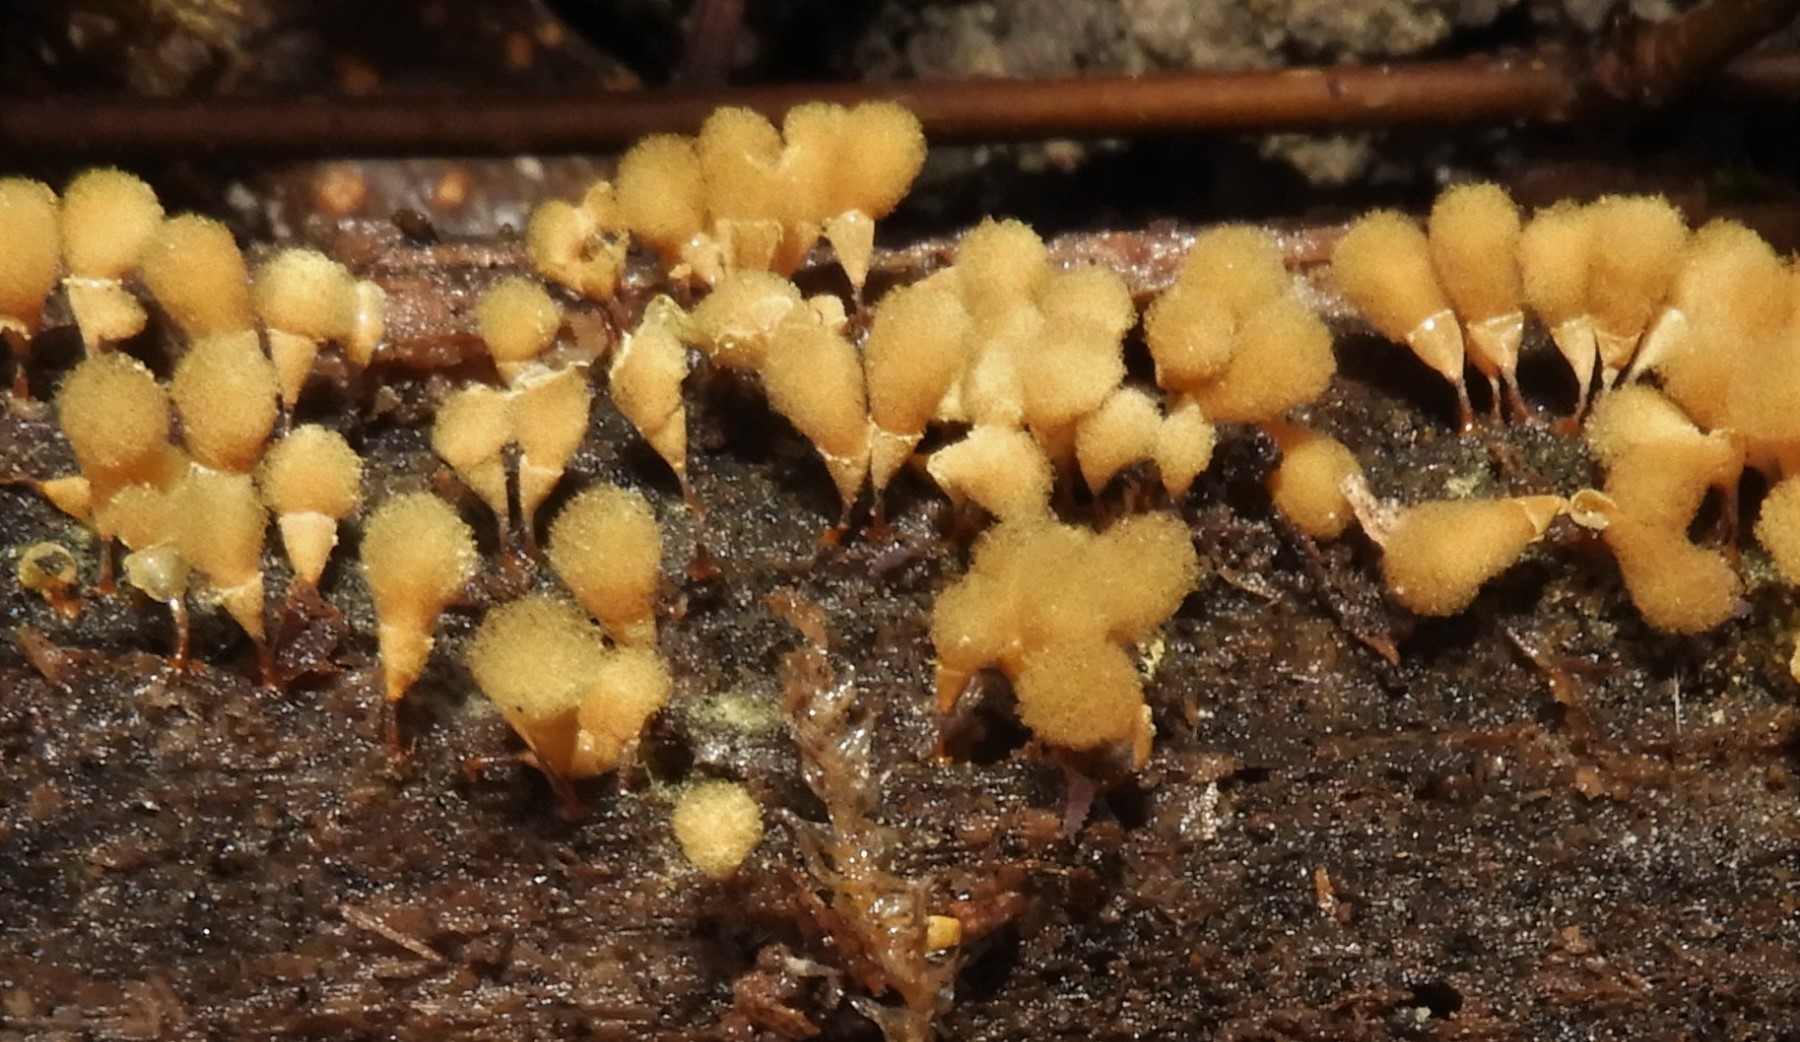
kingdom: Protozoa
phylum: Mycetozoa
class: Myxomycetes
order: Trichiales
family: Arcyriaceae
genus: Hemitrichia
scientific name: Hemitrichia clavata
